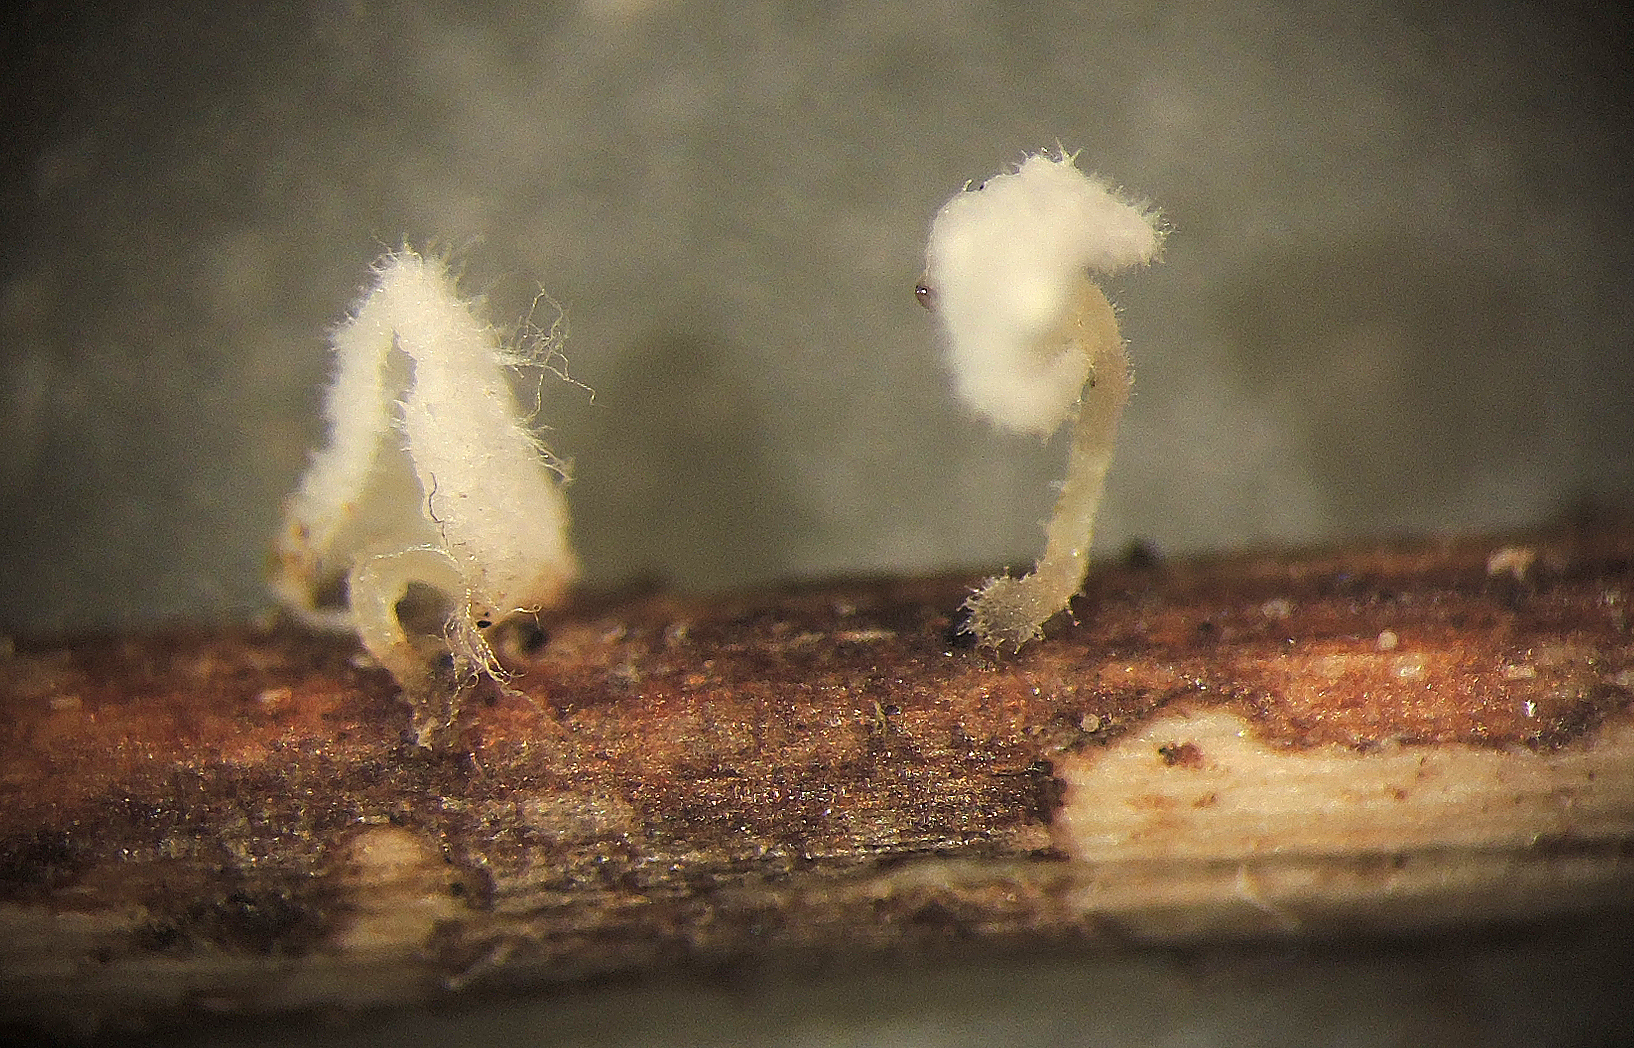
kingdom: Fungi
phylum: Basidiomycota
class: Agaricomycetes
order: Agaricales
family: Mycenaceae
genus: Hemimycena
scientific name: Hemimycena hirsuta
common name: håret huesvamp
